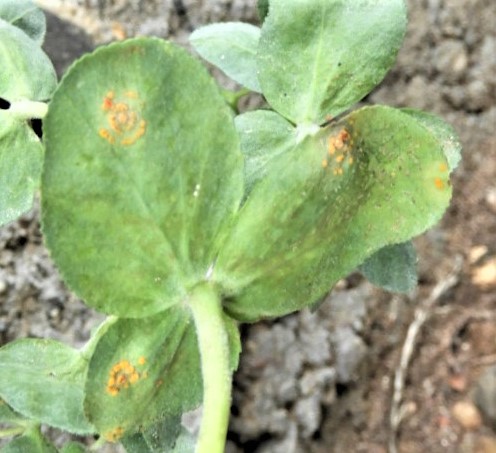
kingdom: Fungi
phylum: Basidiomycota
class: Pucciniomycetes
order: Pucciniales
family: Melampsoraceae
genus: Melampsora
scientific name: Melampsora euphorbiae
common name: vortemælk-skorperust
